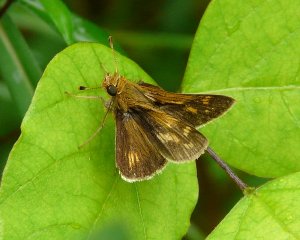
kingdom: Animalia
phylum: Arthropoda
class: Insecta
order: Lepidoptera
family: Hesperiidae
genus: Polites
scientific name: Polites coras
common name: Peck's Skipper
